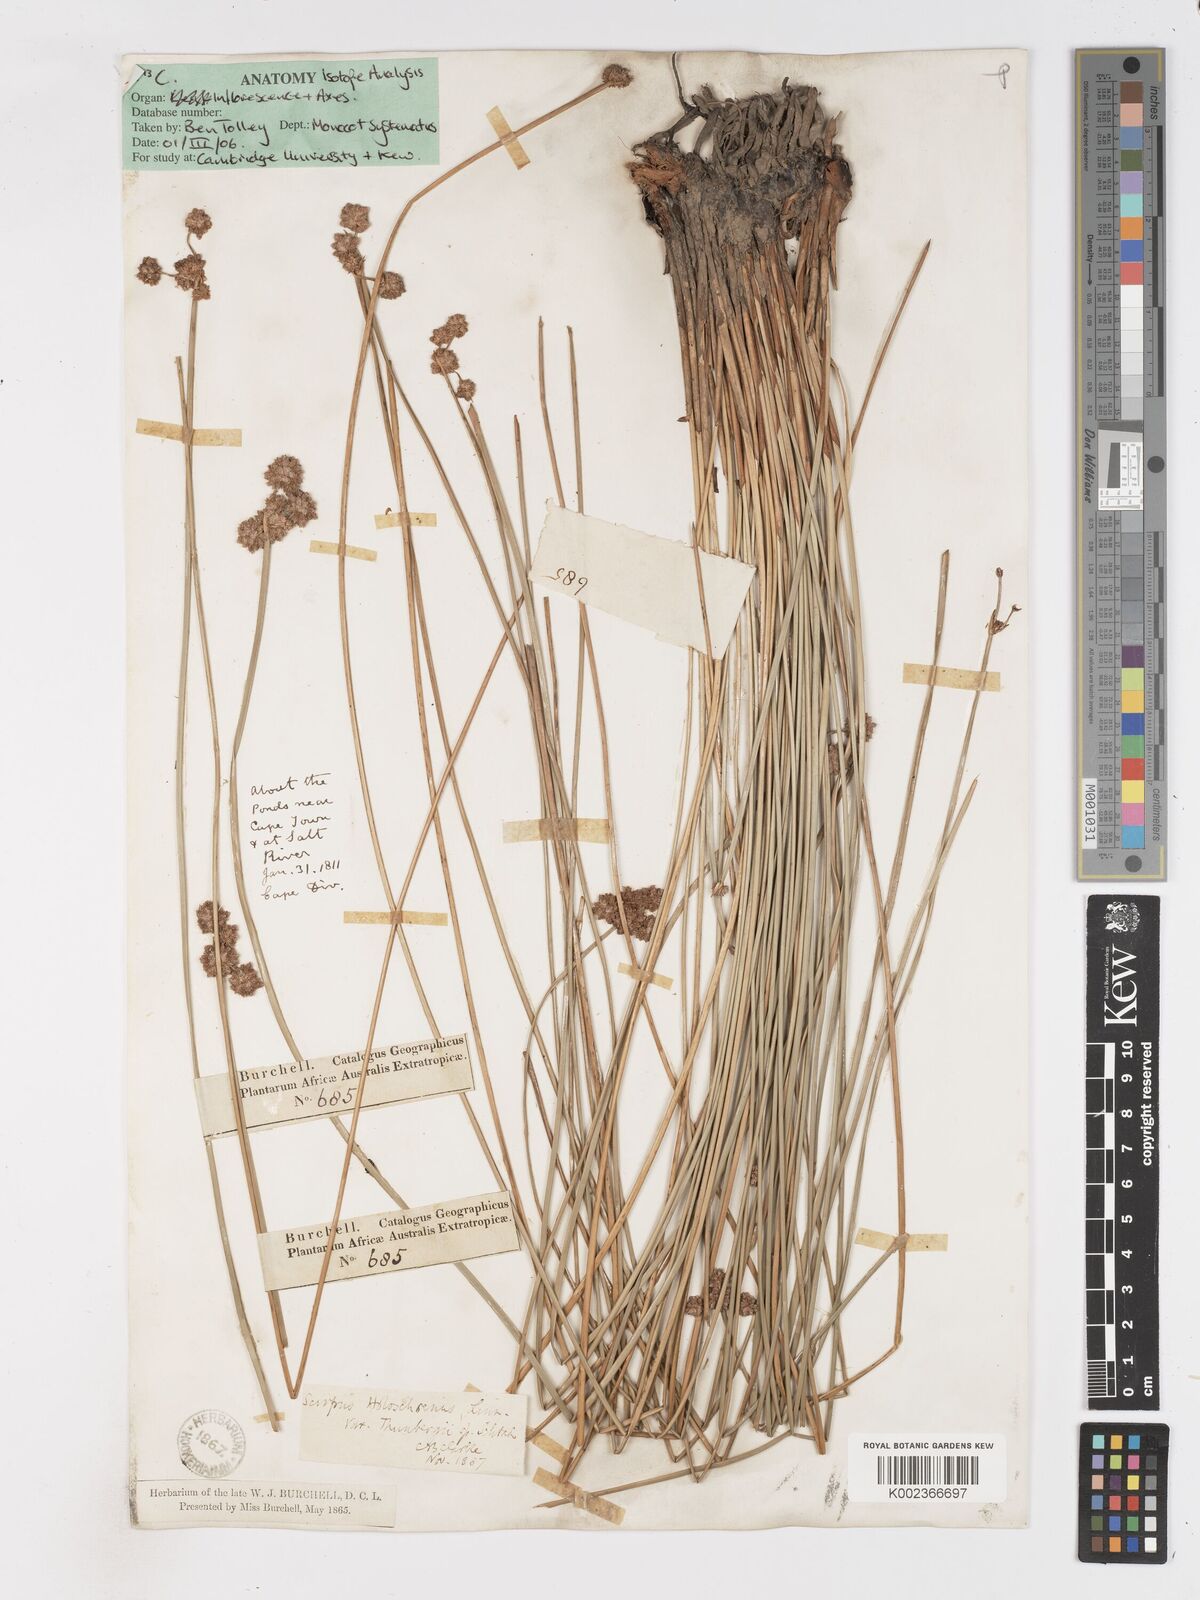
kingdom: Plantae
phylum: Tracheophyta
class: Liliopsida
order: Poales
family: Cyperaceae
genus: Scirpoides
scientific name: Scirpoides holoschoenus
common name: Round-headed club-rush
